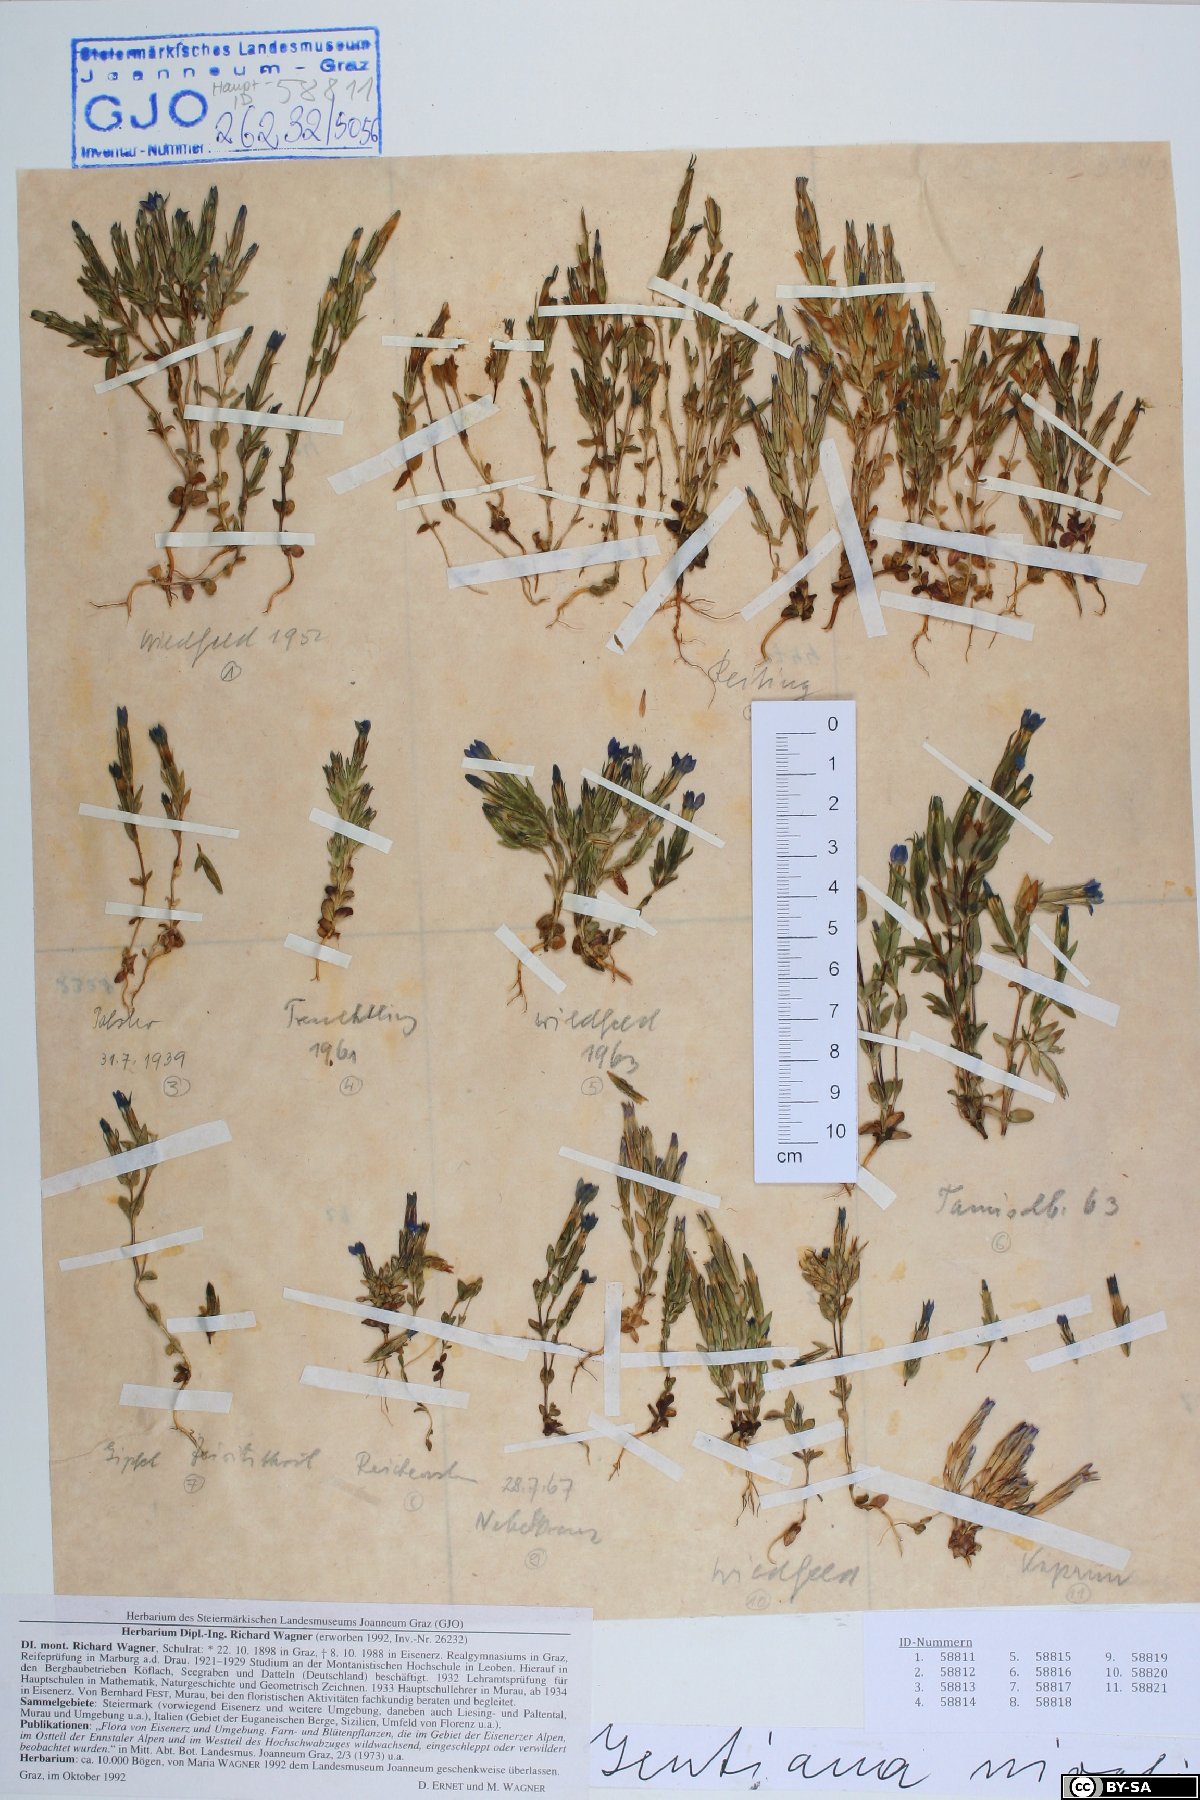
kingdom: Plantae
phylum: Tracheophyta
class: Magnoliopsida
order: Gentianales
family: Gentianaceae
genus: Gentiana
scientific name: Gentiana nivalis
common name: Alpine gentian
